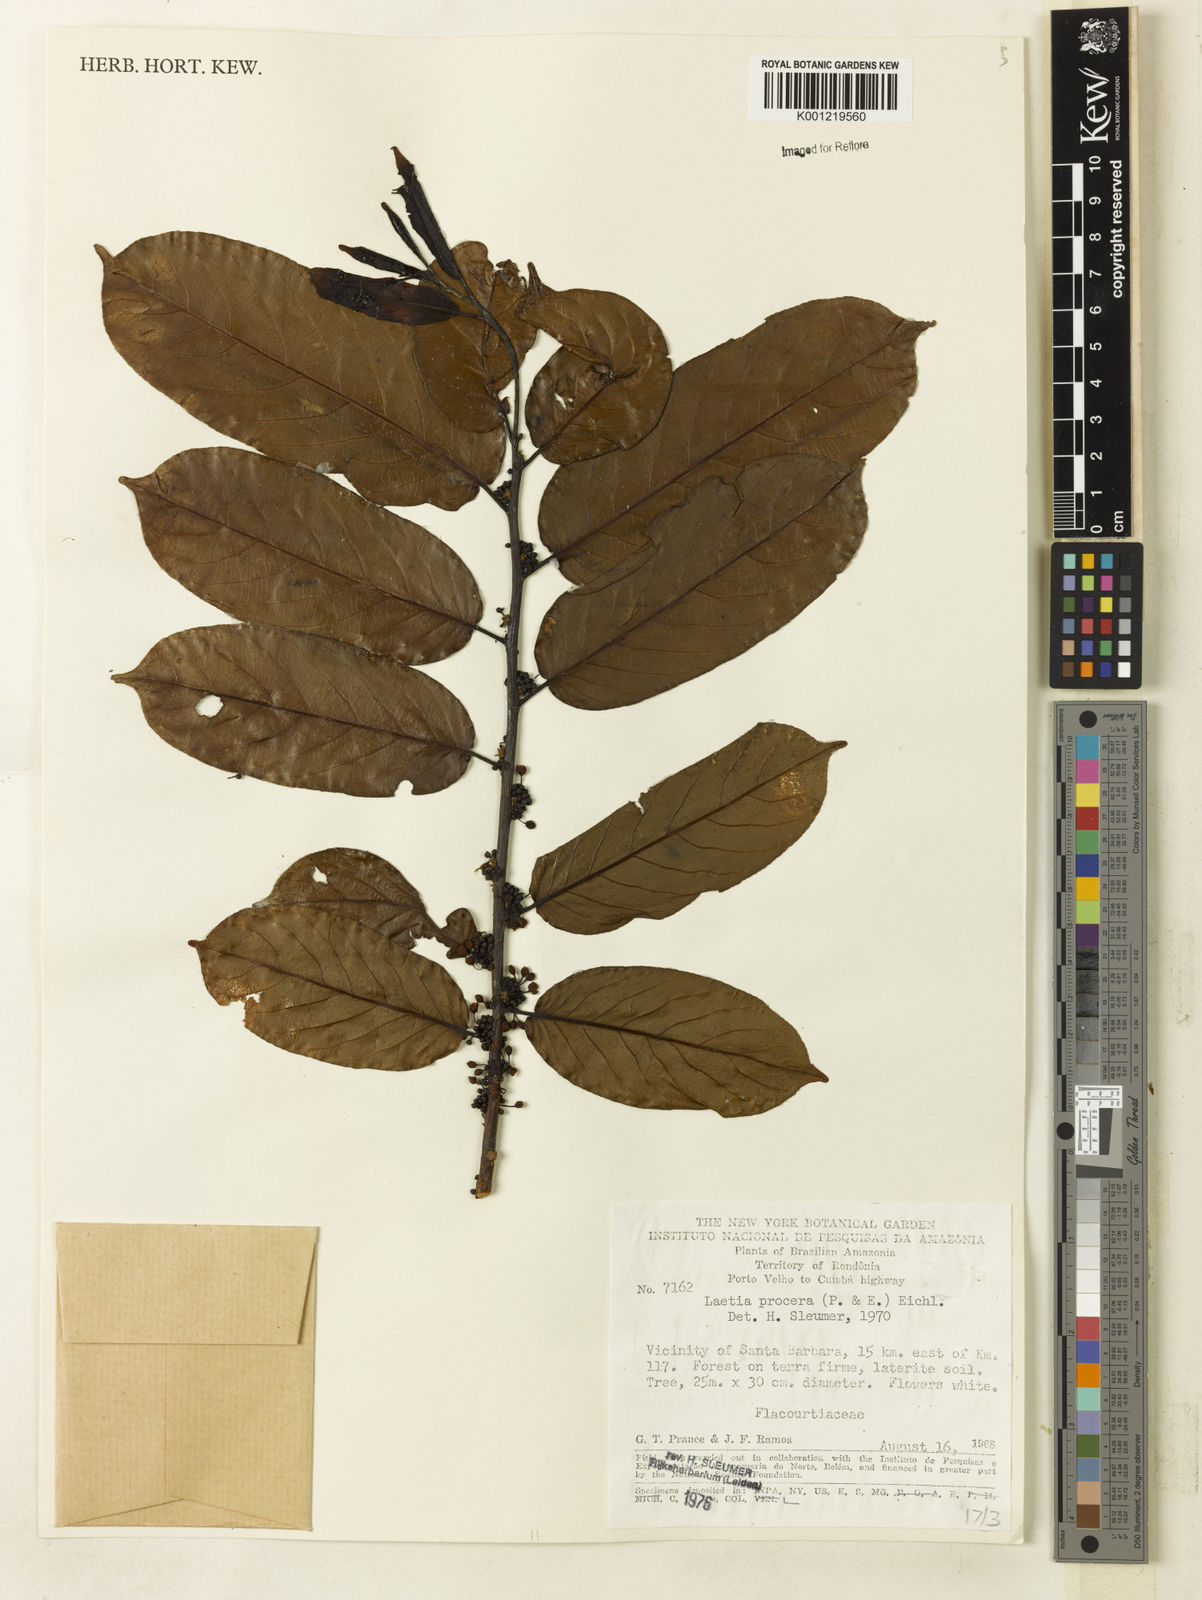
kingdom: Plantae
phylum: Tracheophyta
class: Magnoliopsida
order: Malpighiales
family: Salicaceae
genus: Casearia
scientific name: Casearia bicolor
